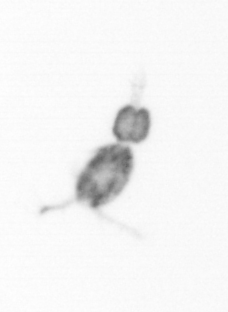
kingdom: Animalia
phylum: Arthropoda
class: Copepoda
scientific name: Copepoda
